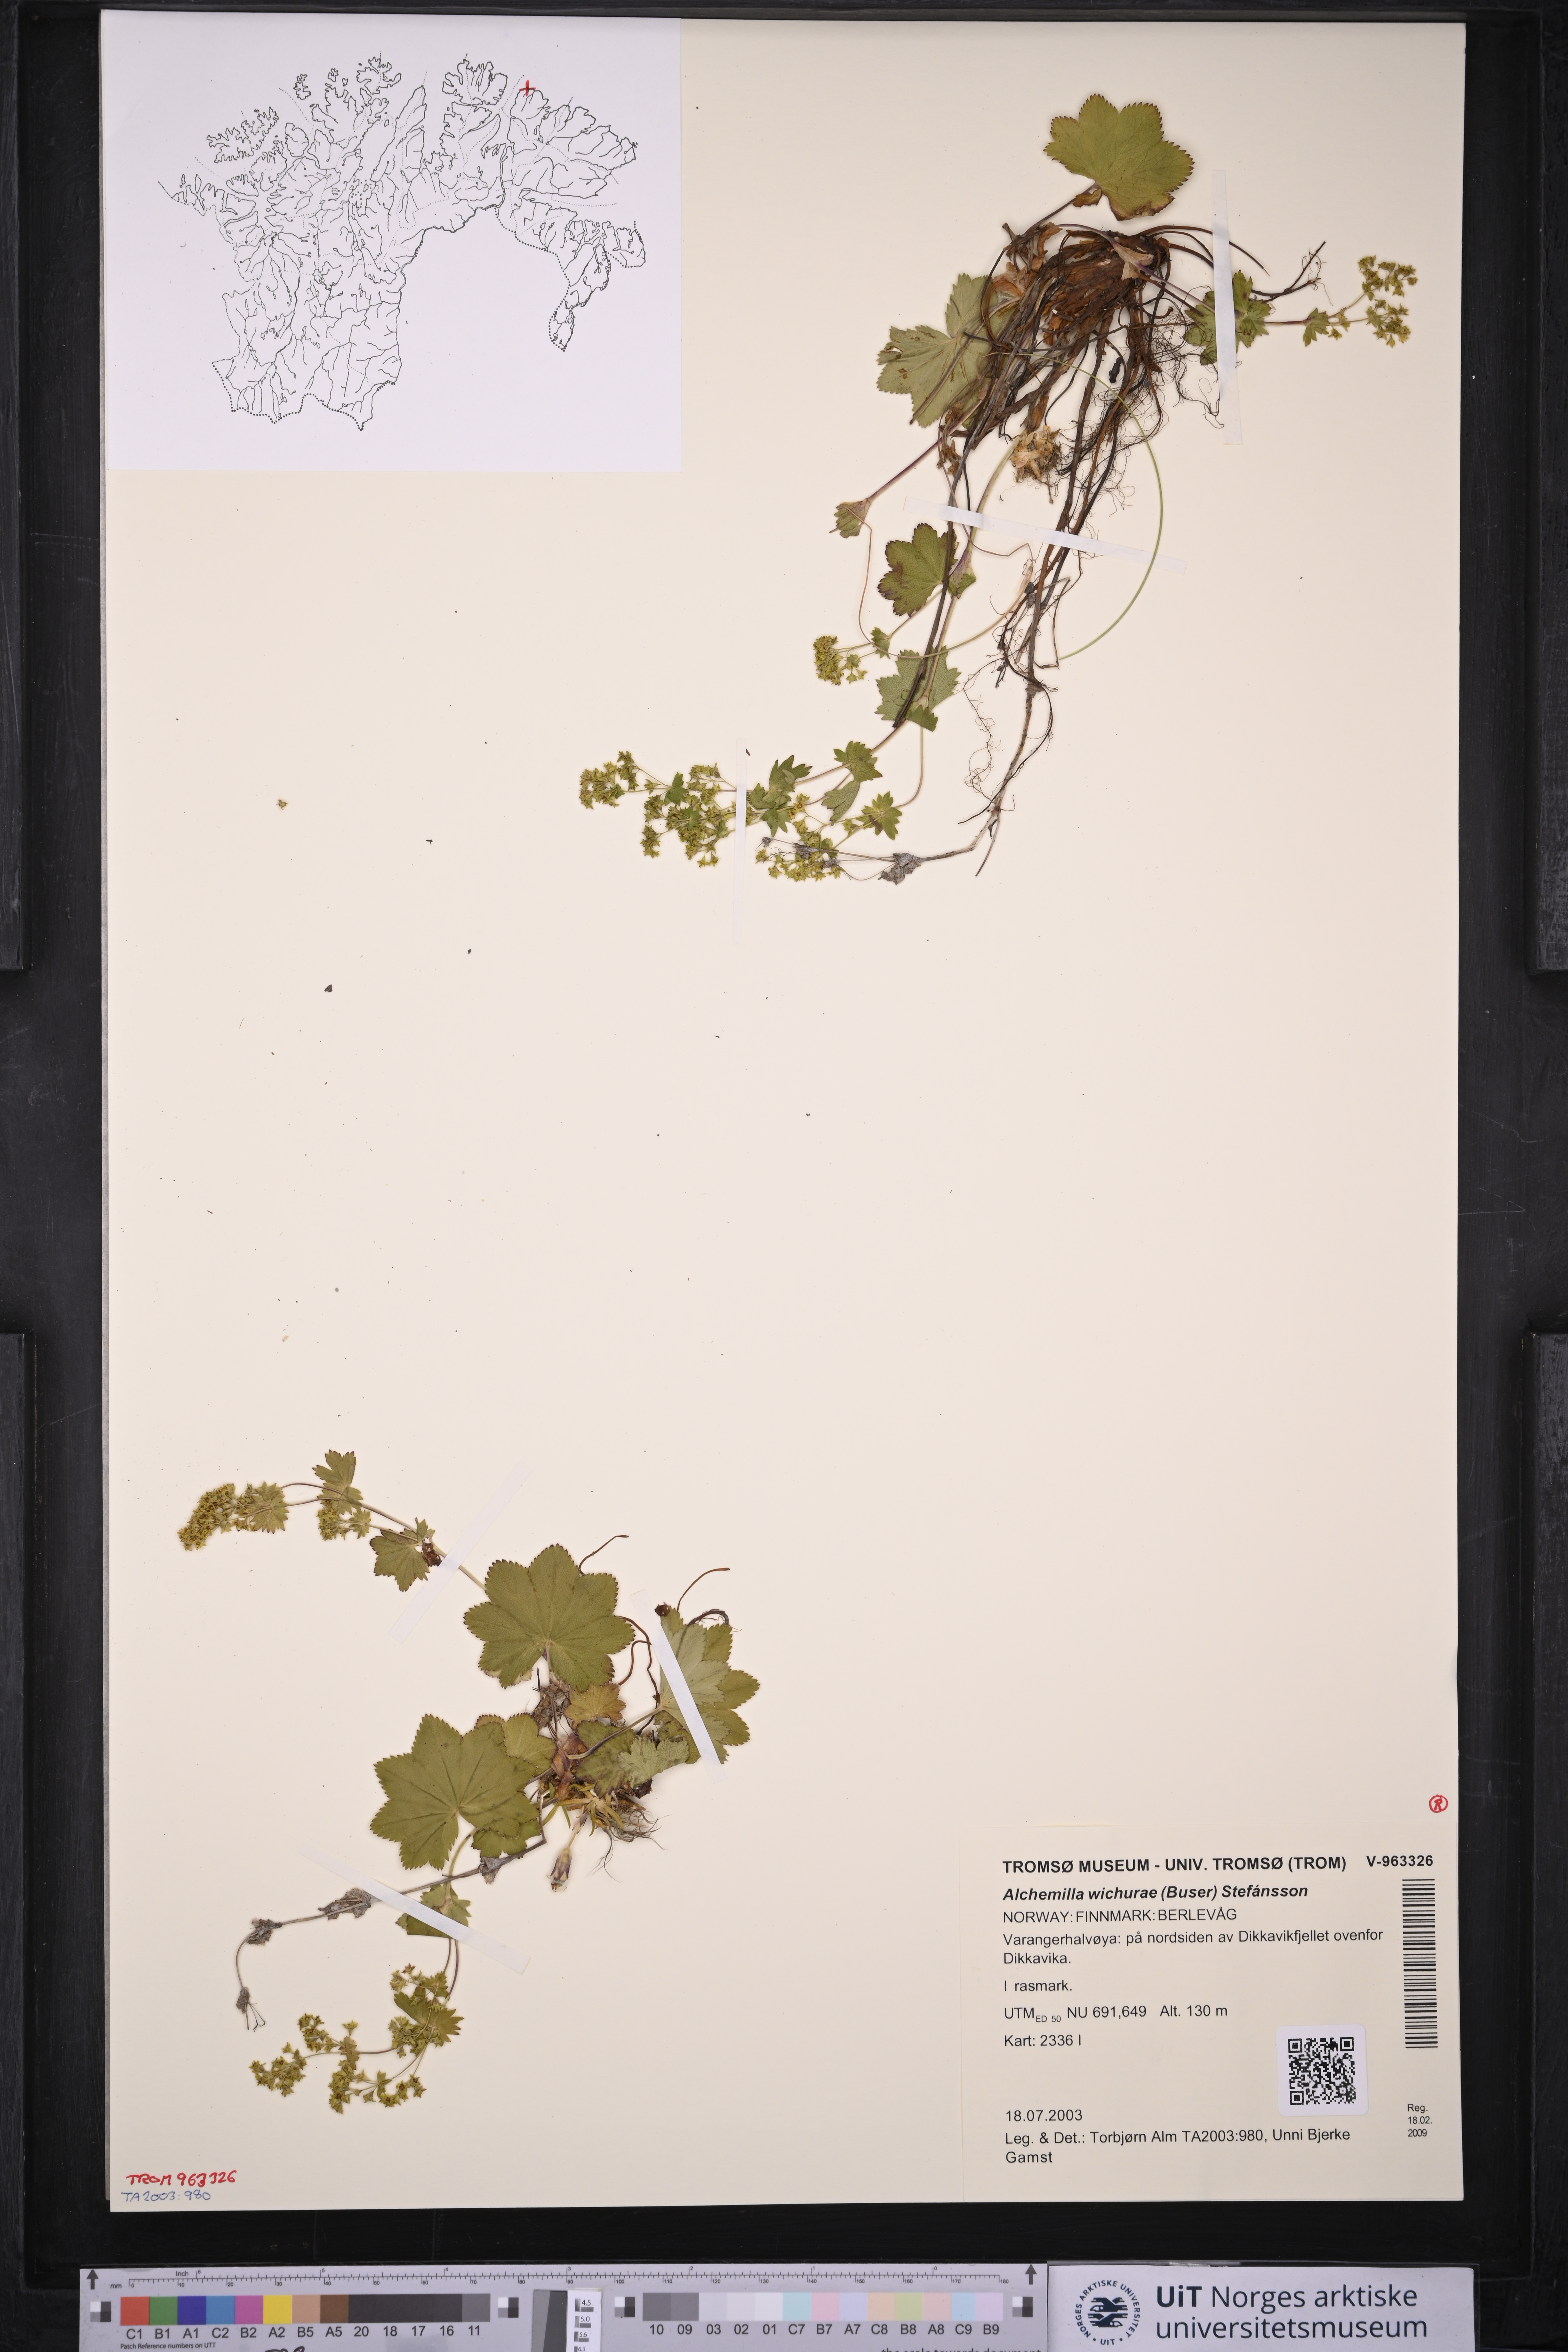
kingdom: Plantae
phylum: Tracheophyta
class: Magnoliopsida
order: Rosales
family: Rosaceae
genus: Alchemilla
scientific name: Alchemilla wichurae
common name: Rock lady's mantle
